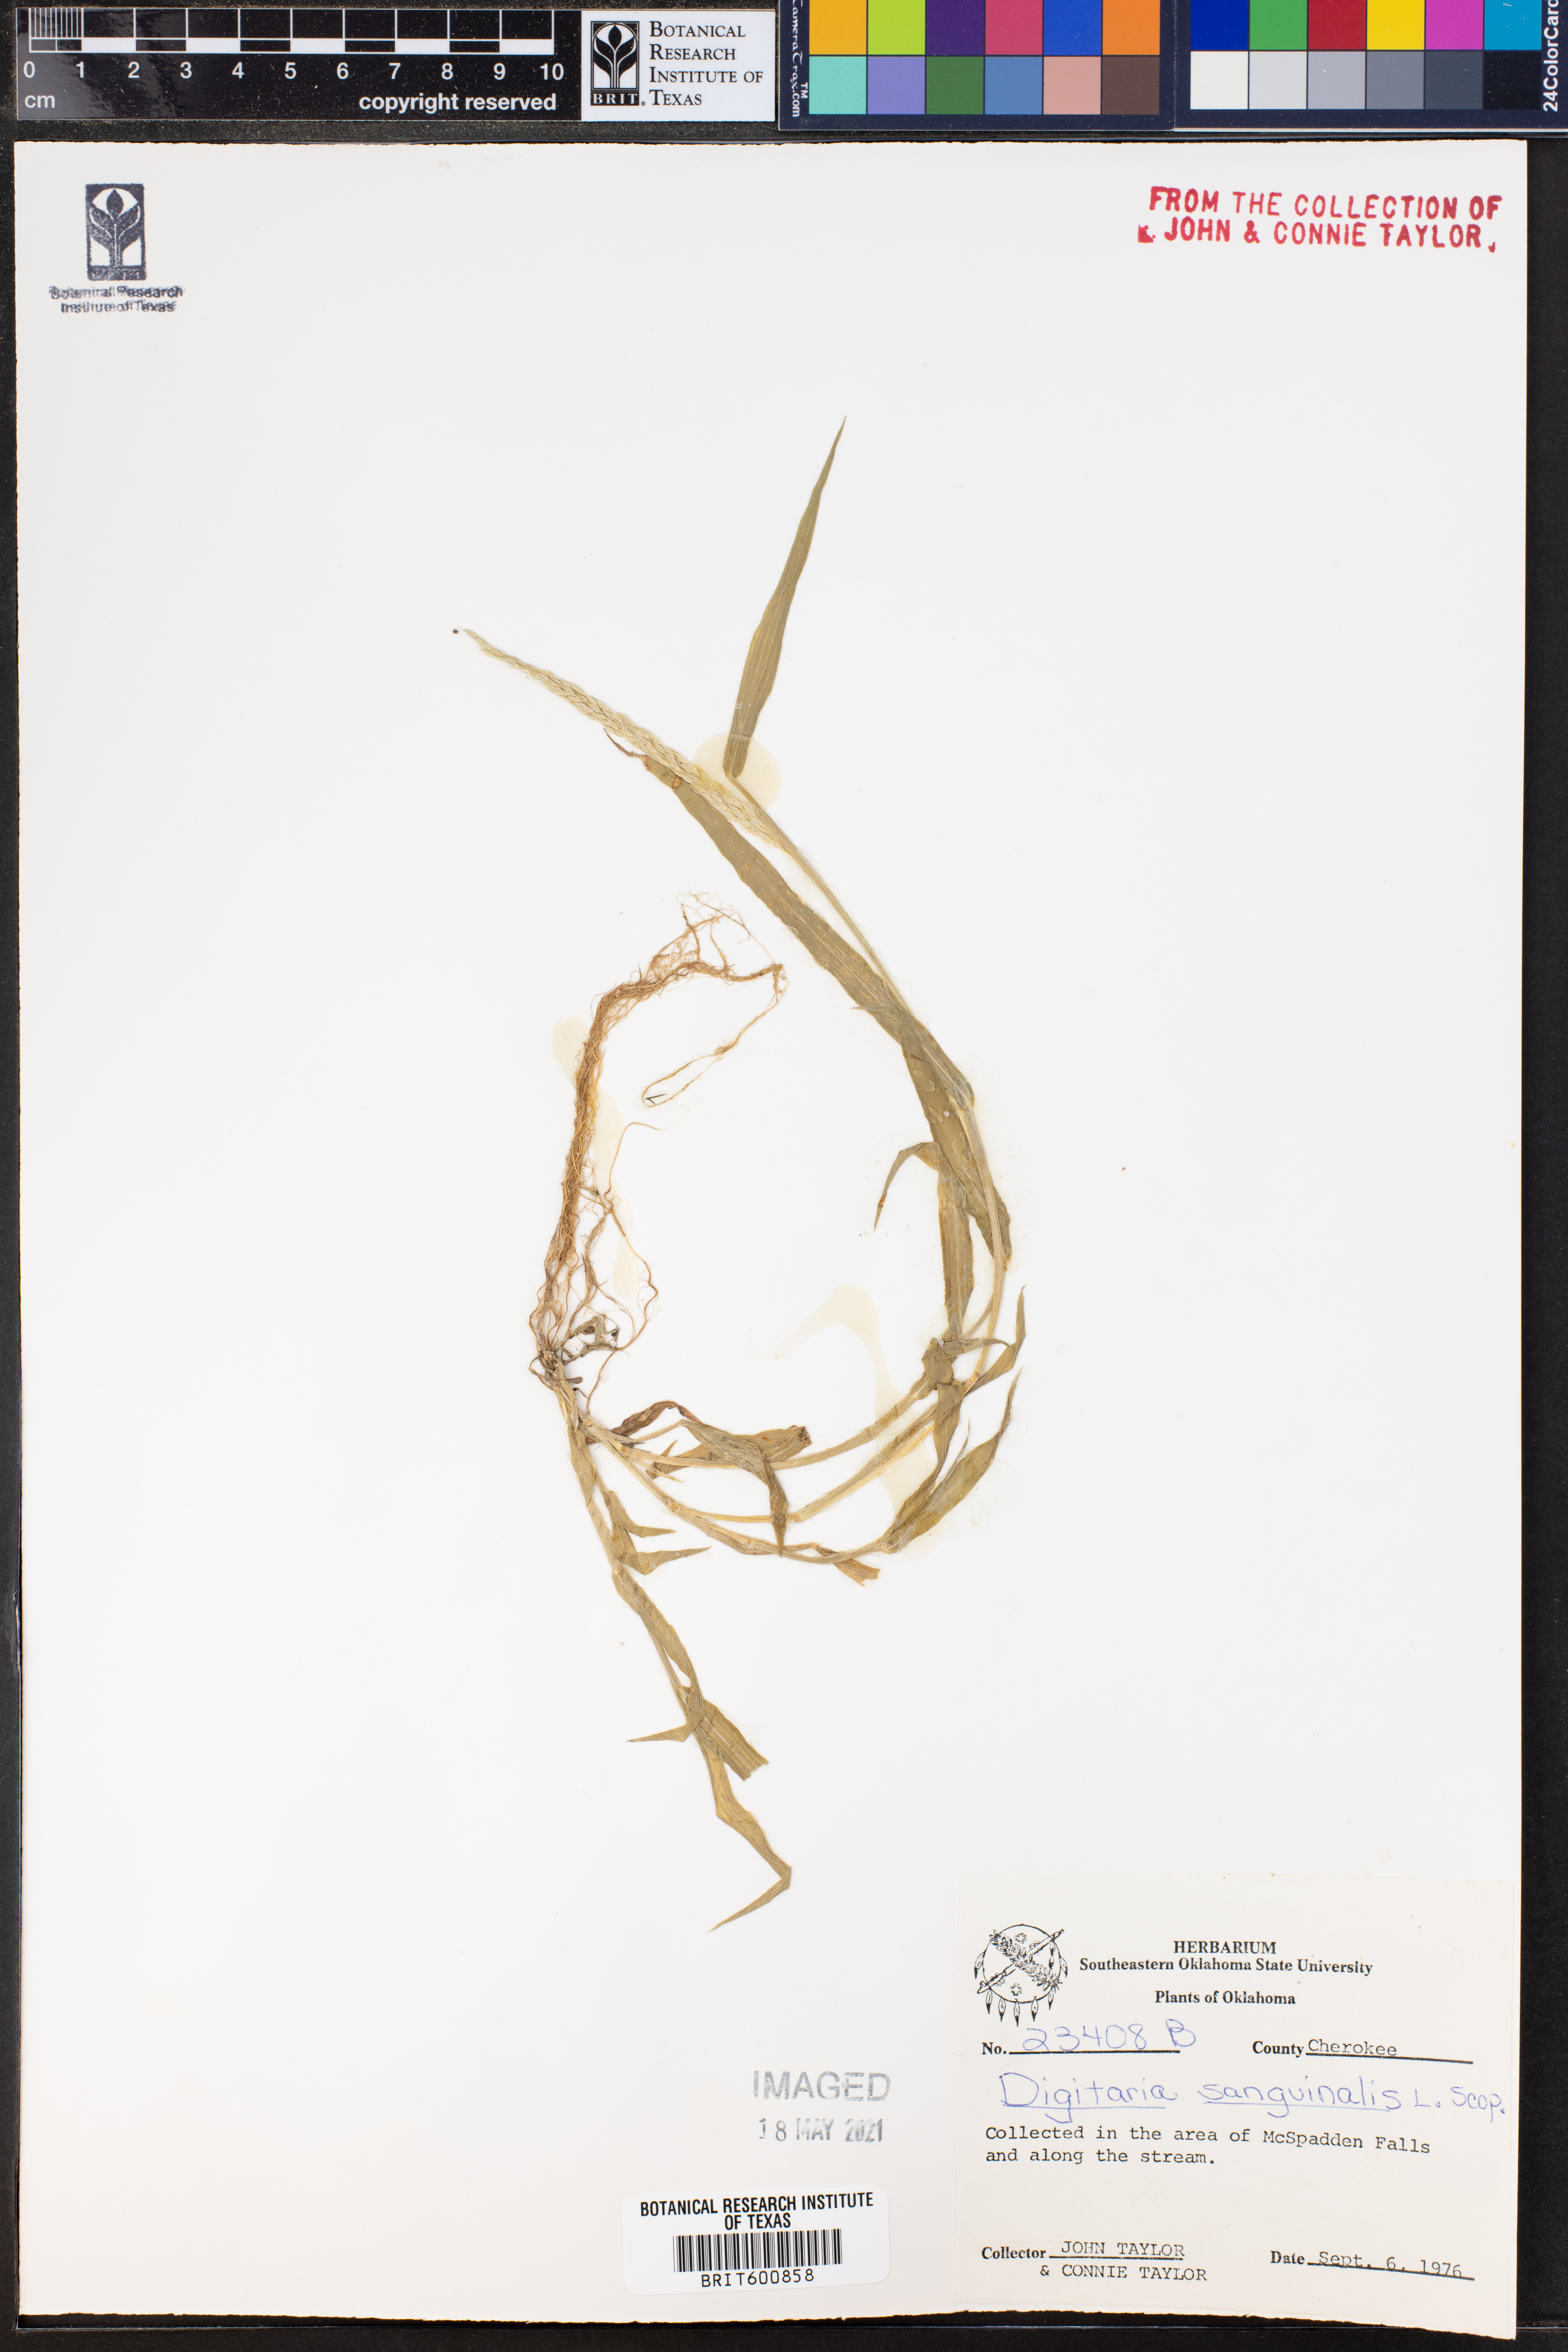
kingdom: Plantae
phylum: Tracheophyta
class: Liliopsida
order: Poales
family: Poaceae
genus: Digitaria
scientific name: Digitaria sanguinalis
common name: Hairy crabgrass
